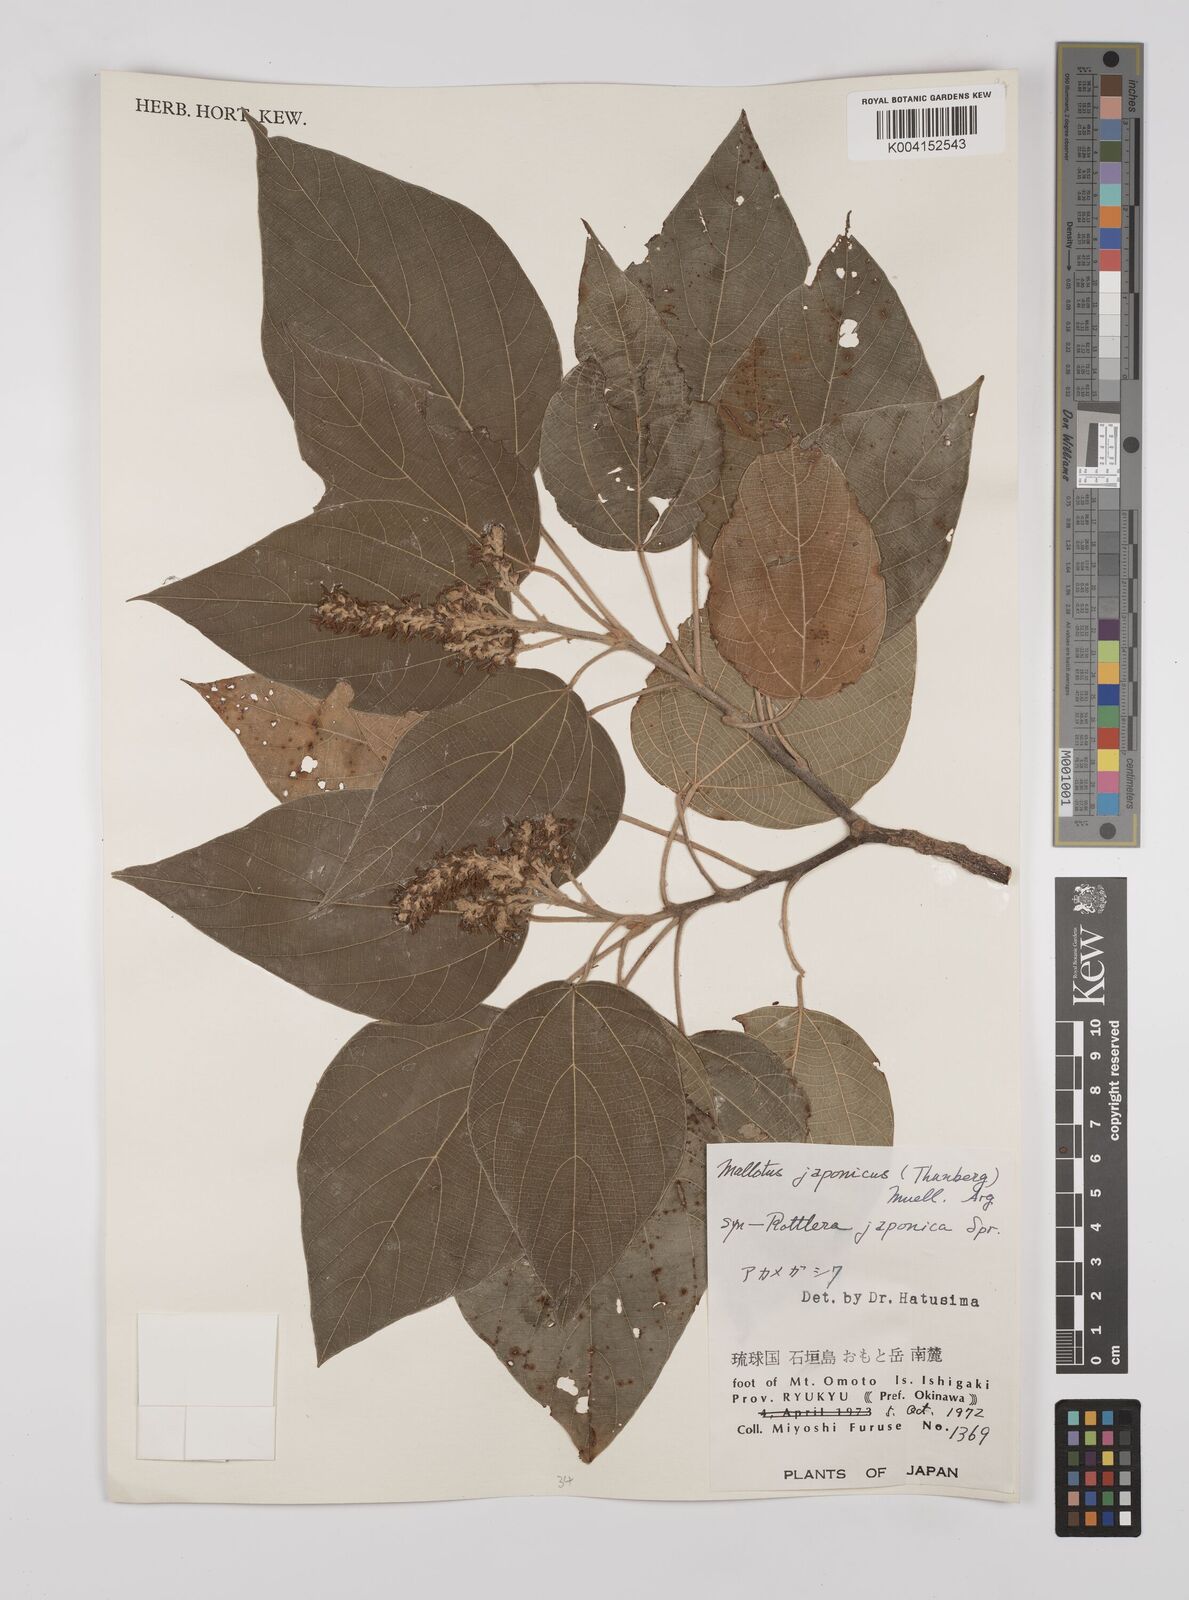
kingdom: Plantae
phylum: Tracheophyta
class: Magnoliopsida
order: Malpighiales
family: Euphorbiaceae
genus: Mallotus
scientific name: Mallotus japonicus
